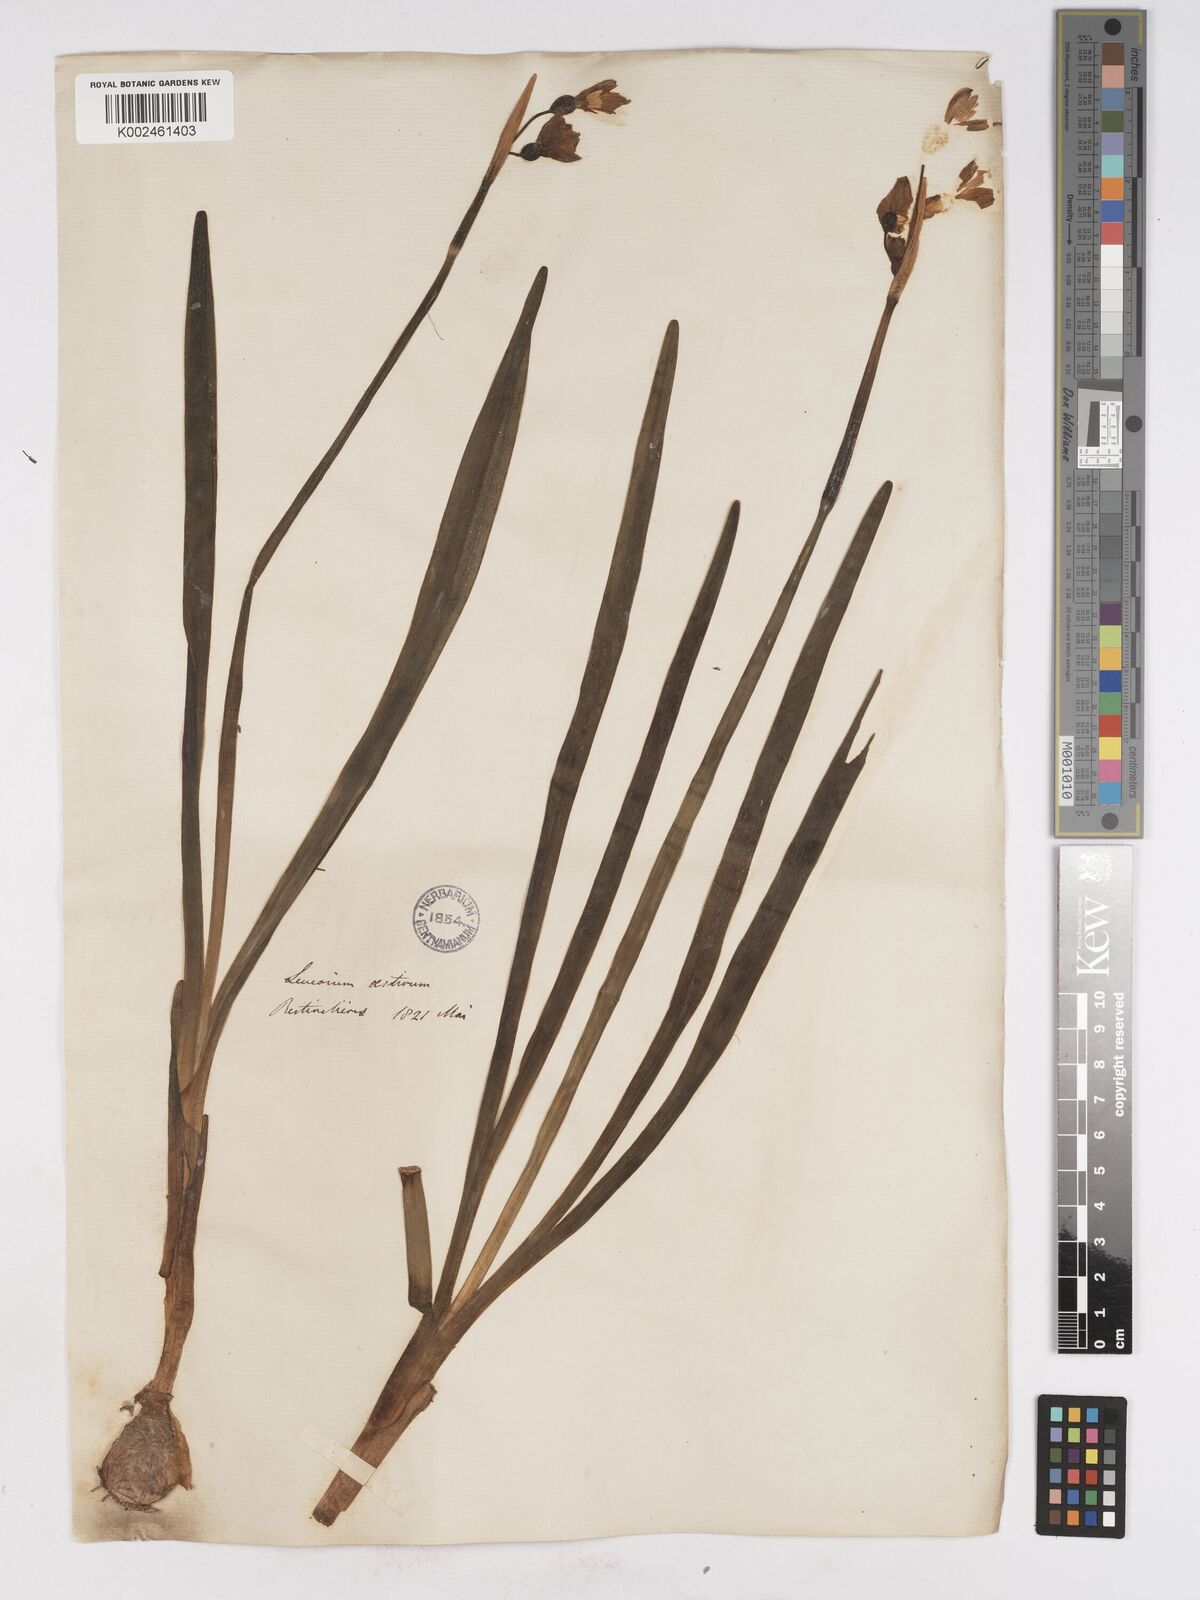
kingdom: Plantae
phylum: Tracheophyta
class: Liliopsida
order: Asparagales
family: Amaryllidaceae
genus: Leucojum
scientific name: Leucojum aestivum
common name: Summer snowflake
